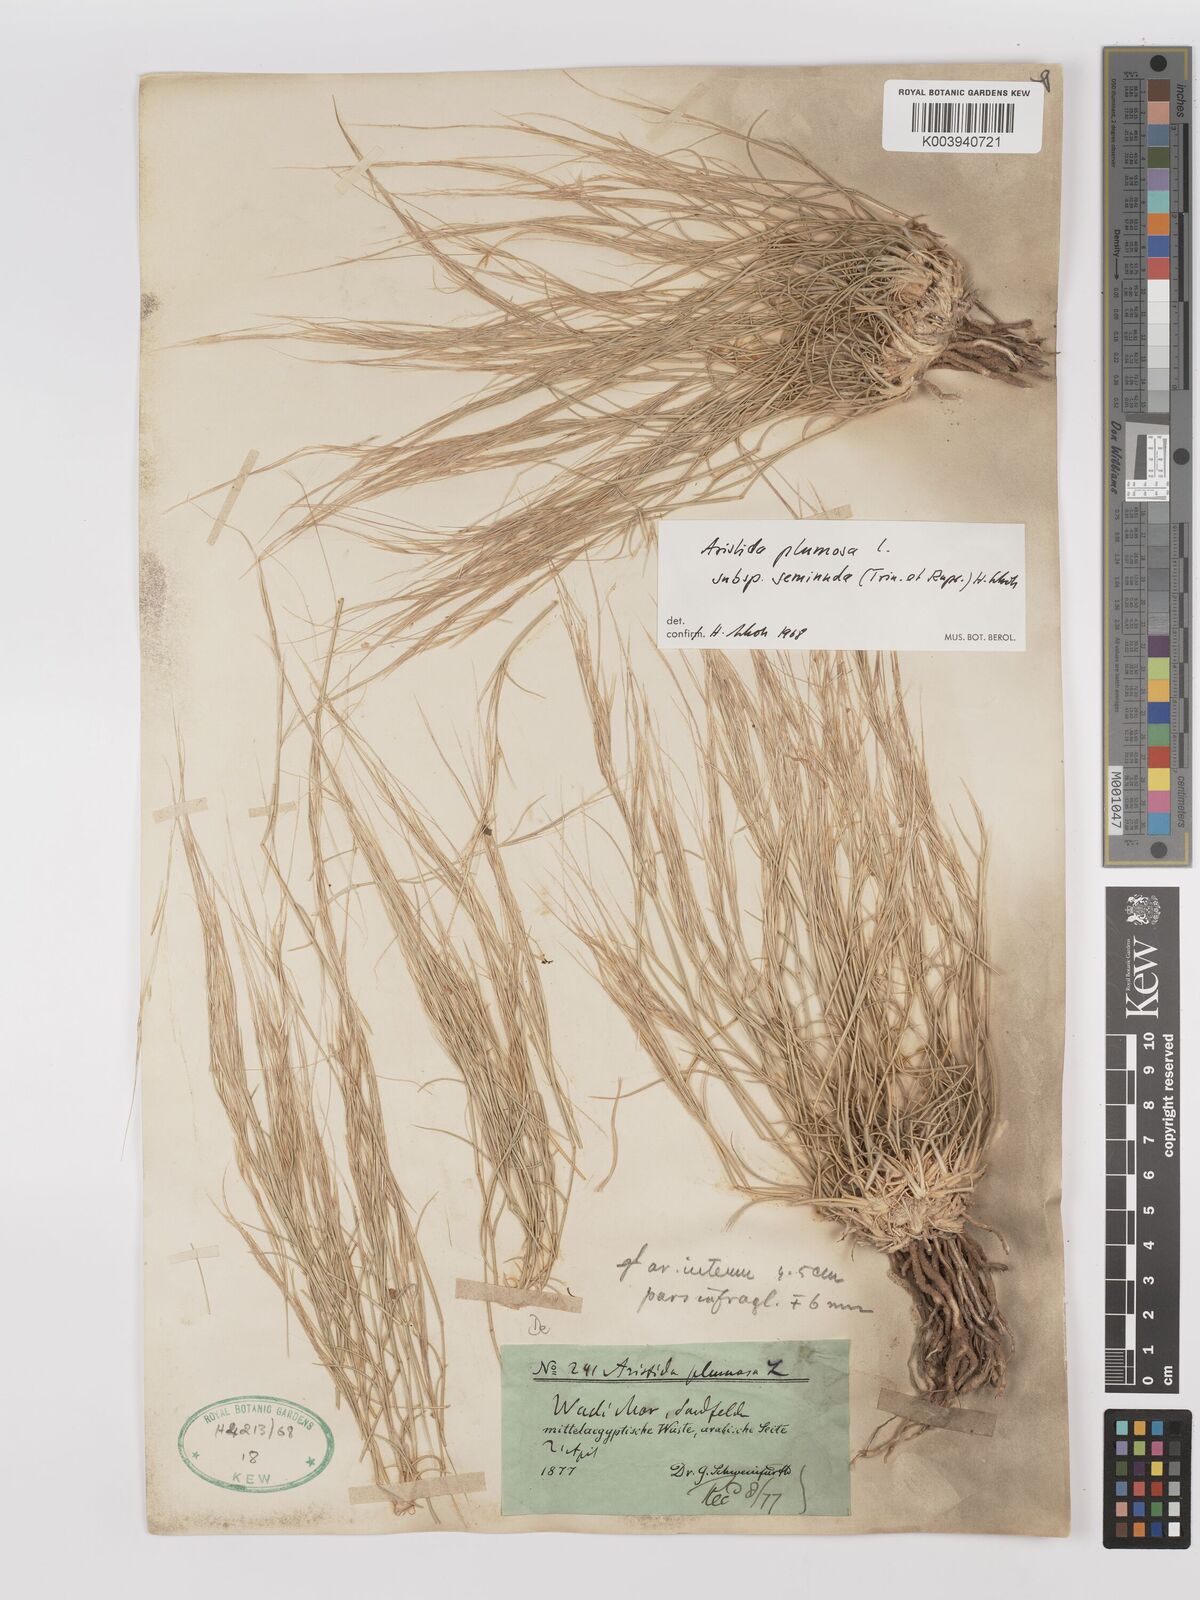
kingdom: Plantae
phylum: Tracheophyta
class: Liliopsida
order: Poales
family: Poaceae
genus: Stipagrostis
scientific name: Stipagrostis plumosa
